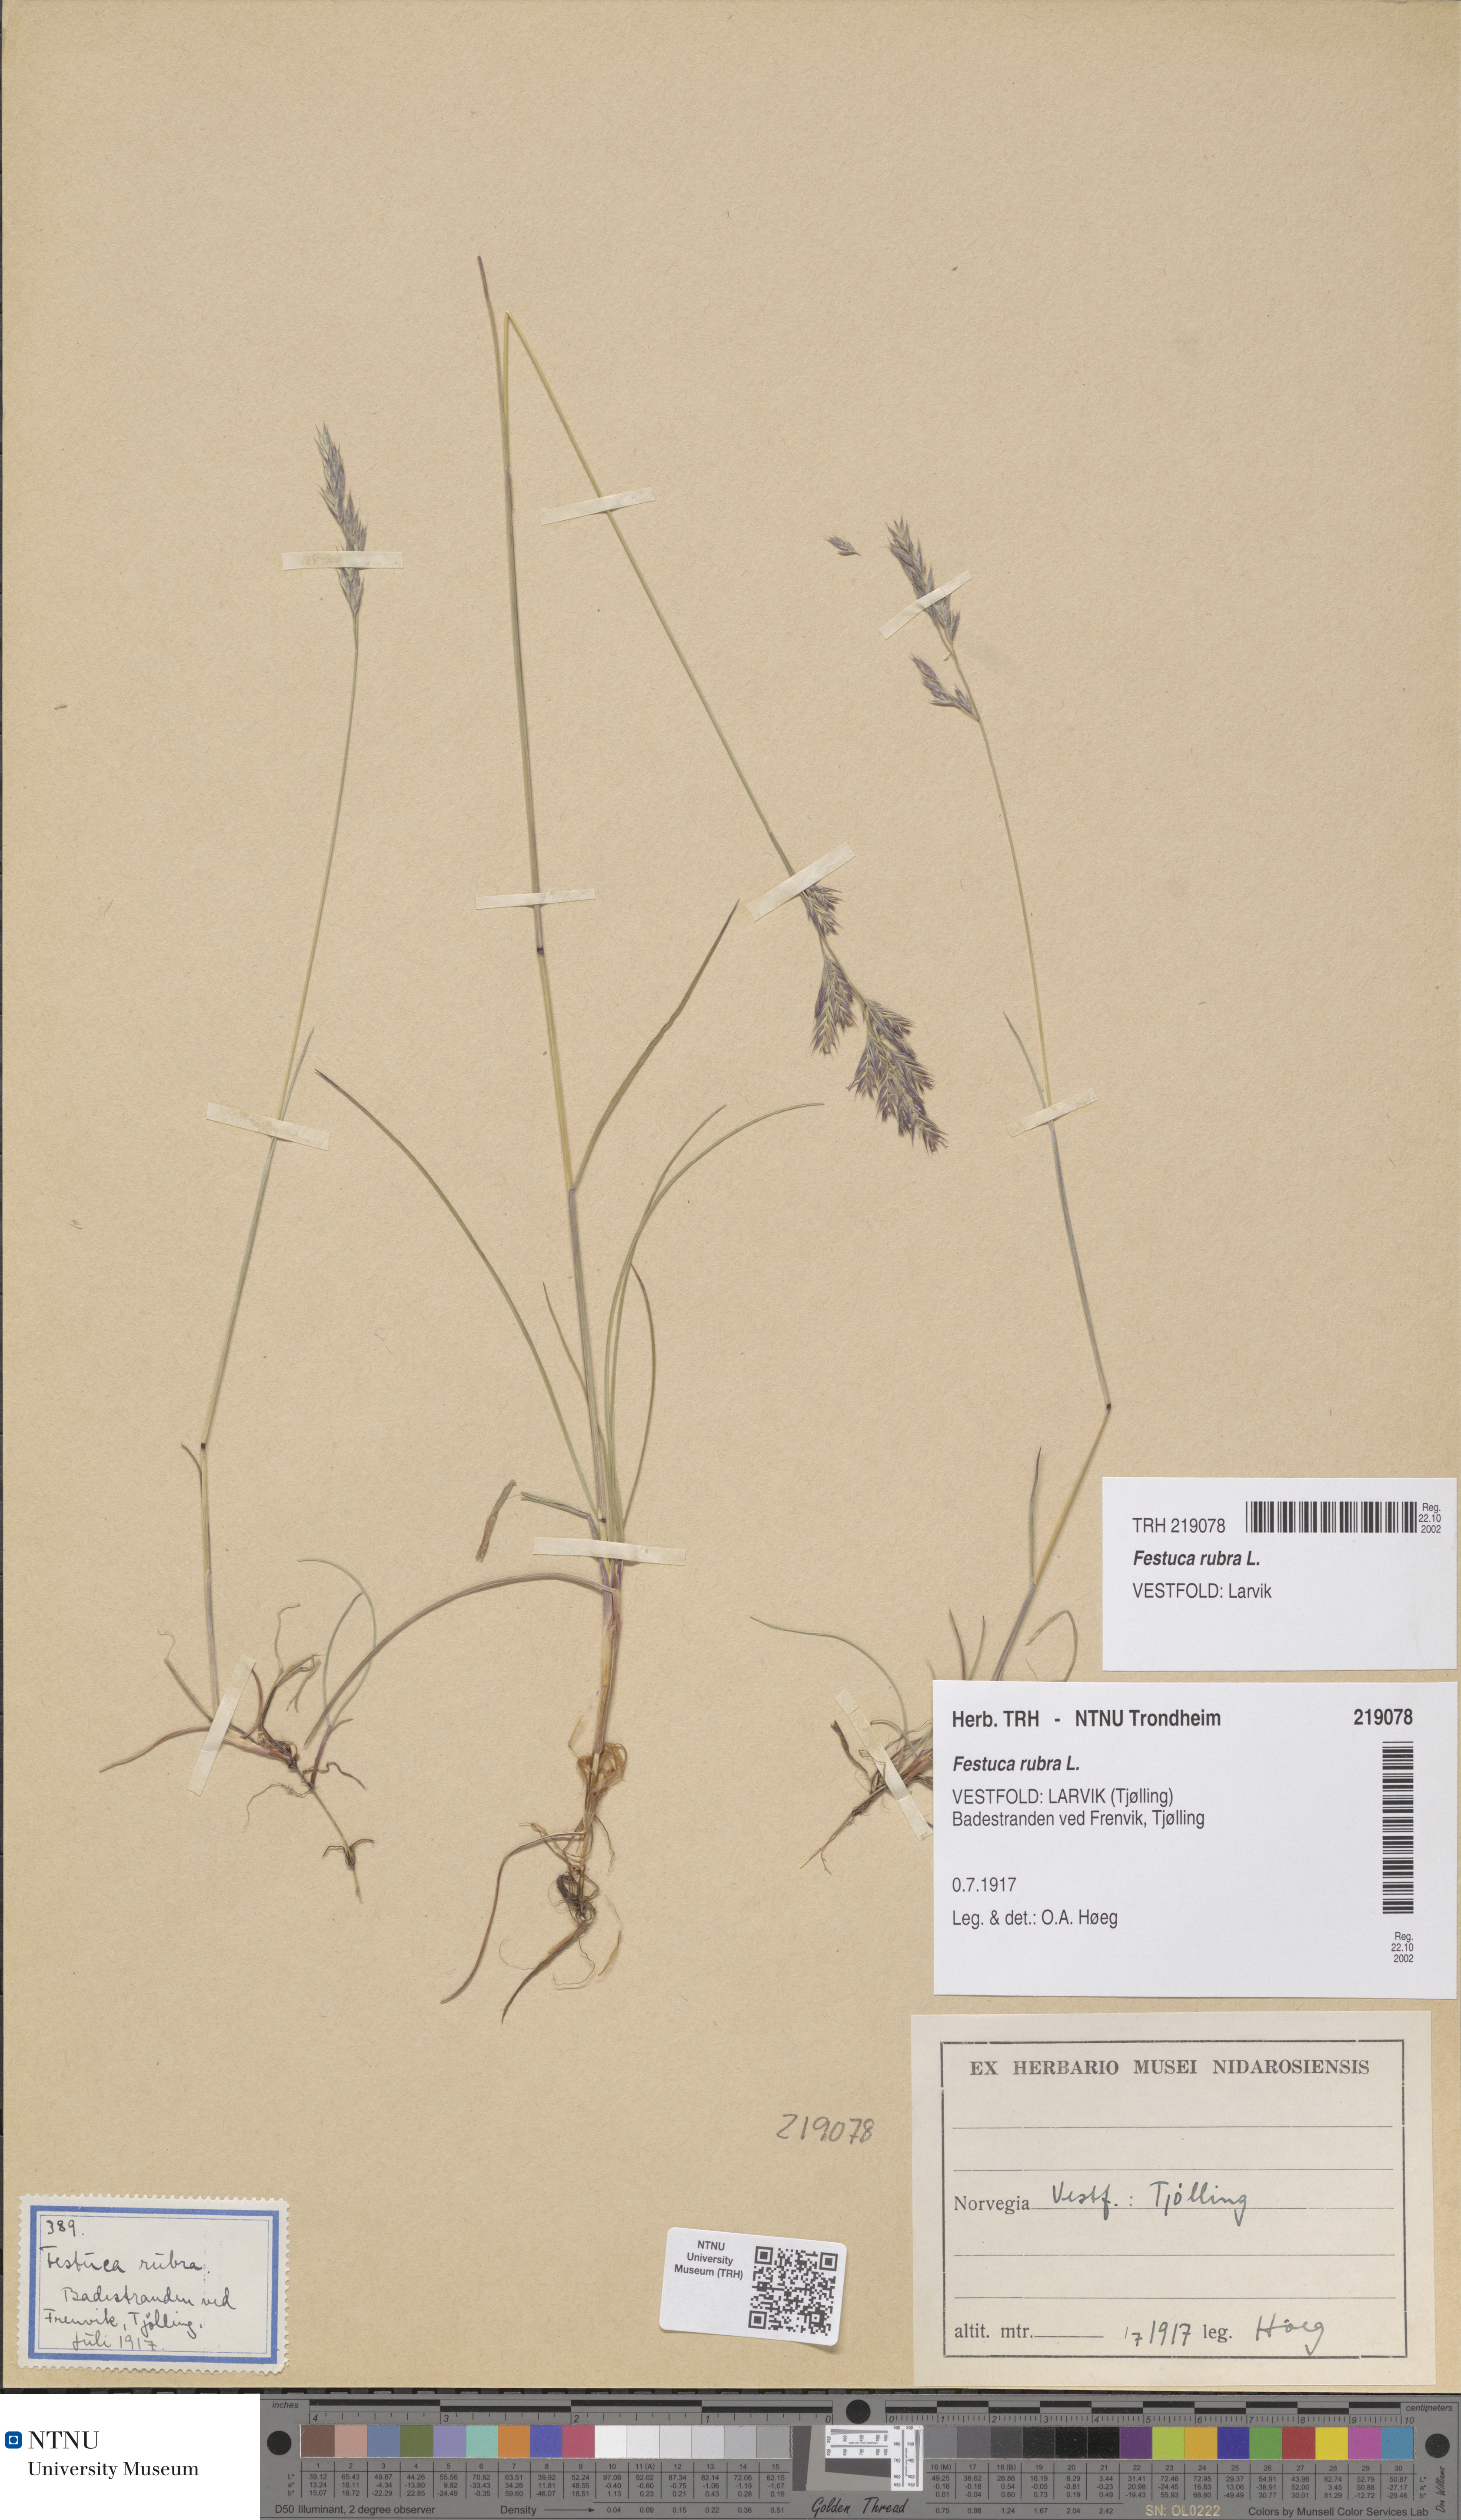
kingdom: Plantae
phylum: Tracheophyta
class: Liliopsida
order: Poales
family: Poaceae
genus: Festuca
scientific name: Festuca rubra
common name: Red fescue
